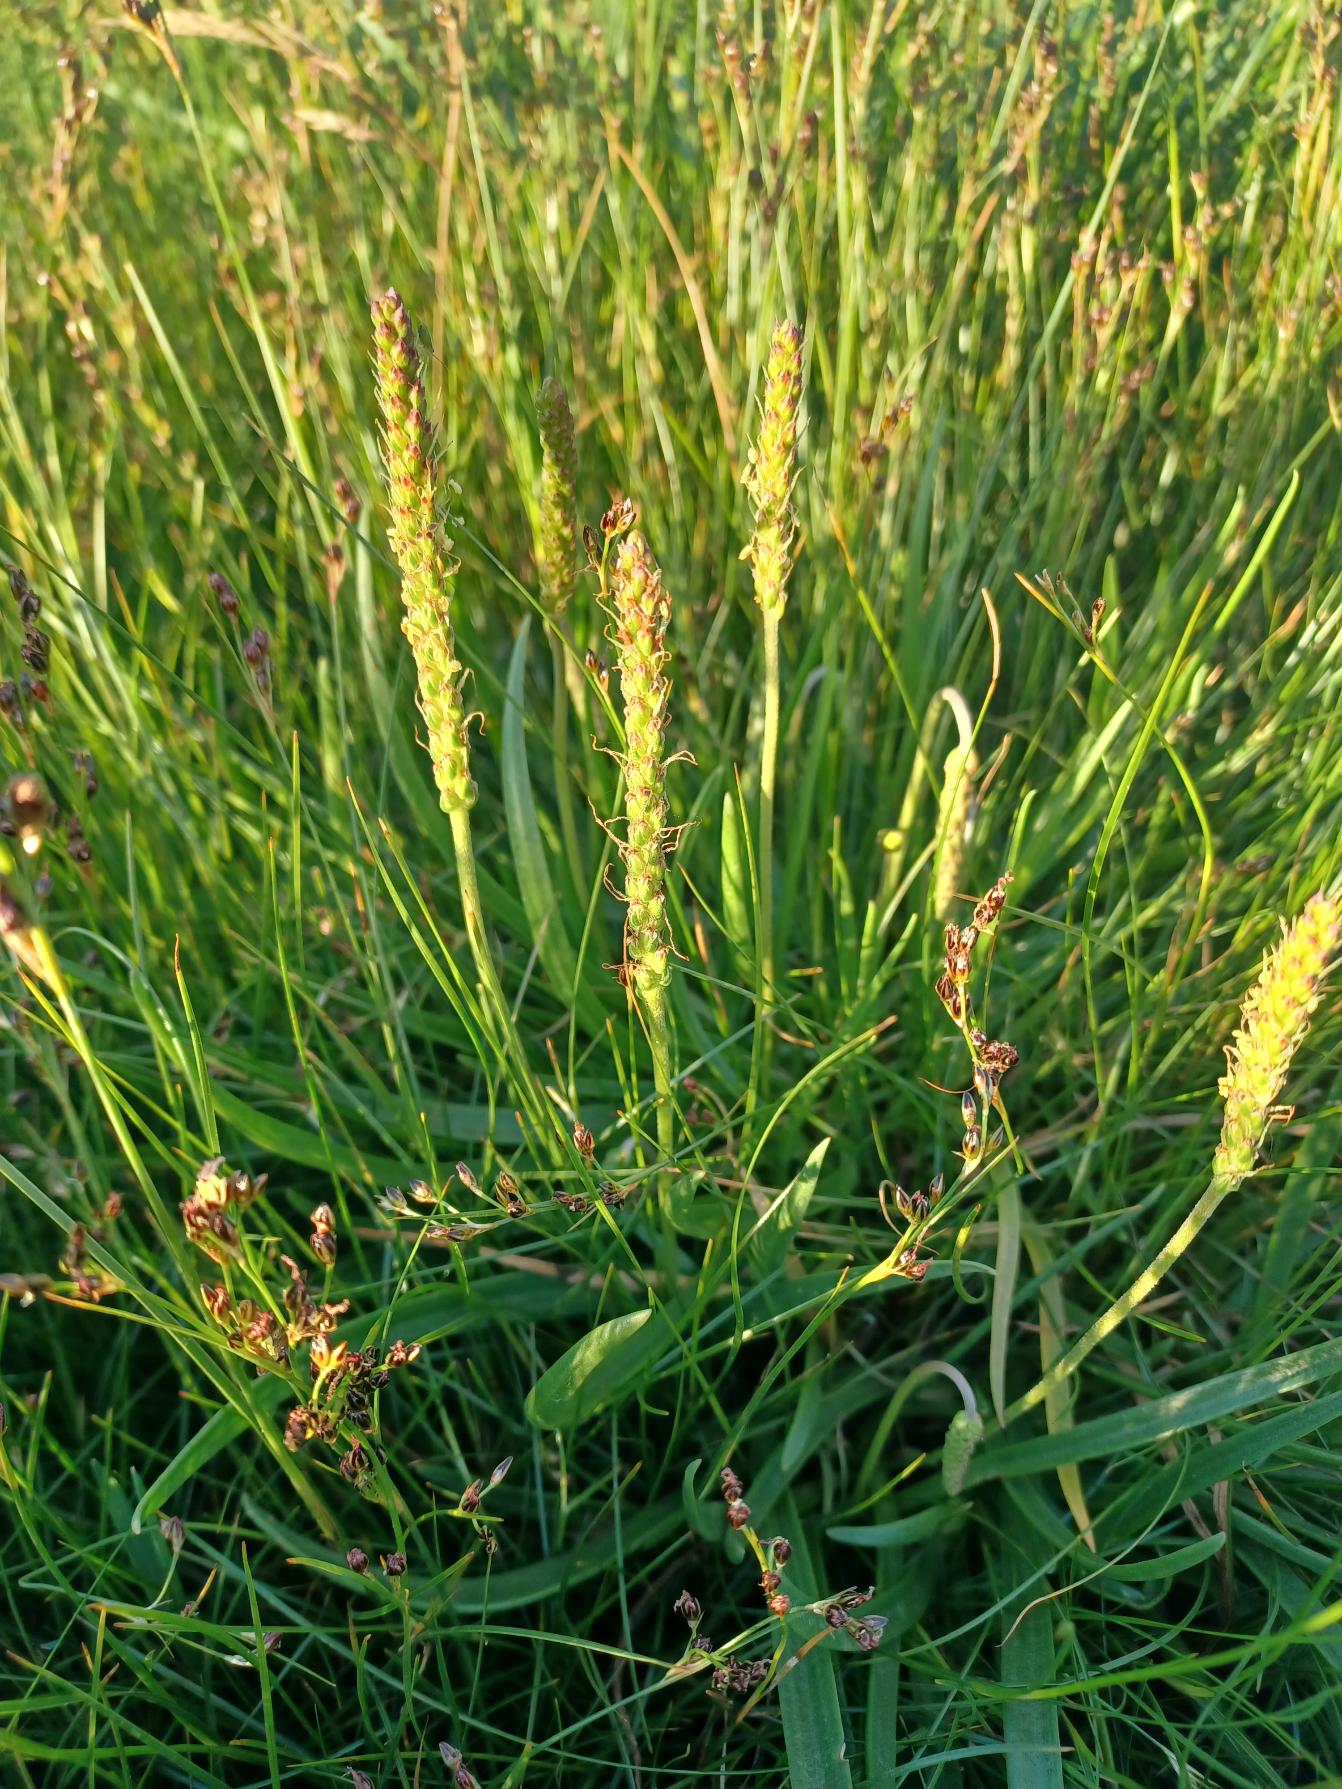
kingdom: Plantae
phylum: Tracheophyta
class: Magnoliopsida
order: Lamiales
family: Plantaginaceae
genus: Plantago
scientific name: Plantago maritima
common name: Strand-vejbred
